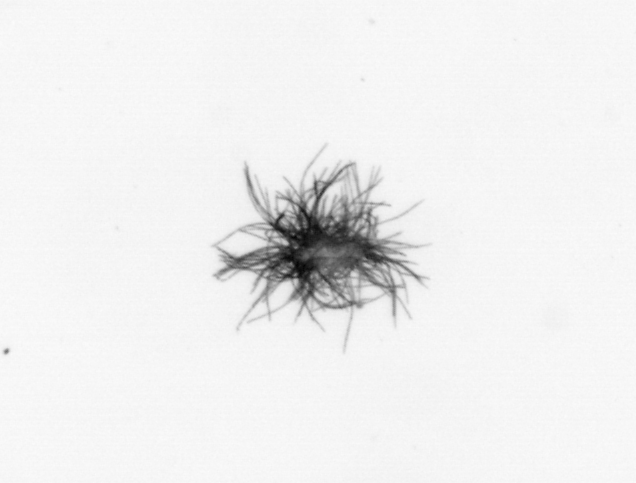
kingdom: Bacteria
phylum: Cyanobacteria
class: Cyanobacteriia
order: Cyanobacteriales
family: Microcoleaceae
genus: Trichodesmium
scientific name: Trichodesmium
